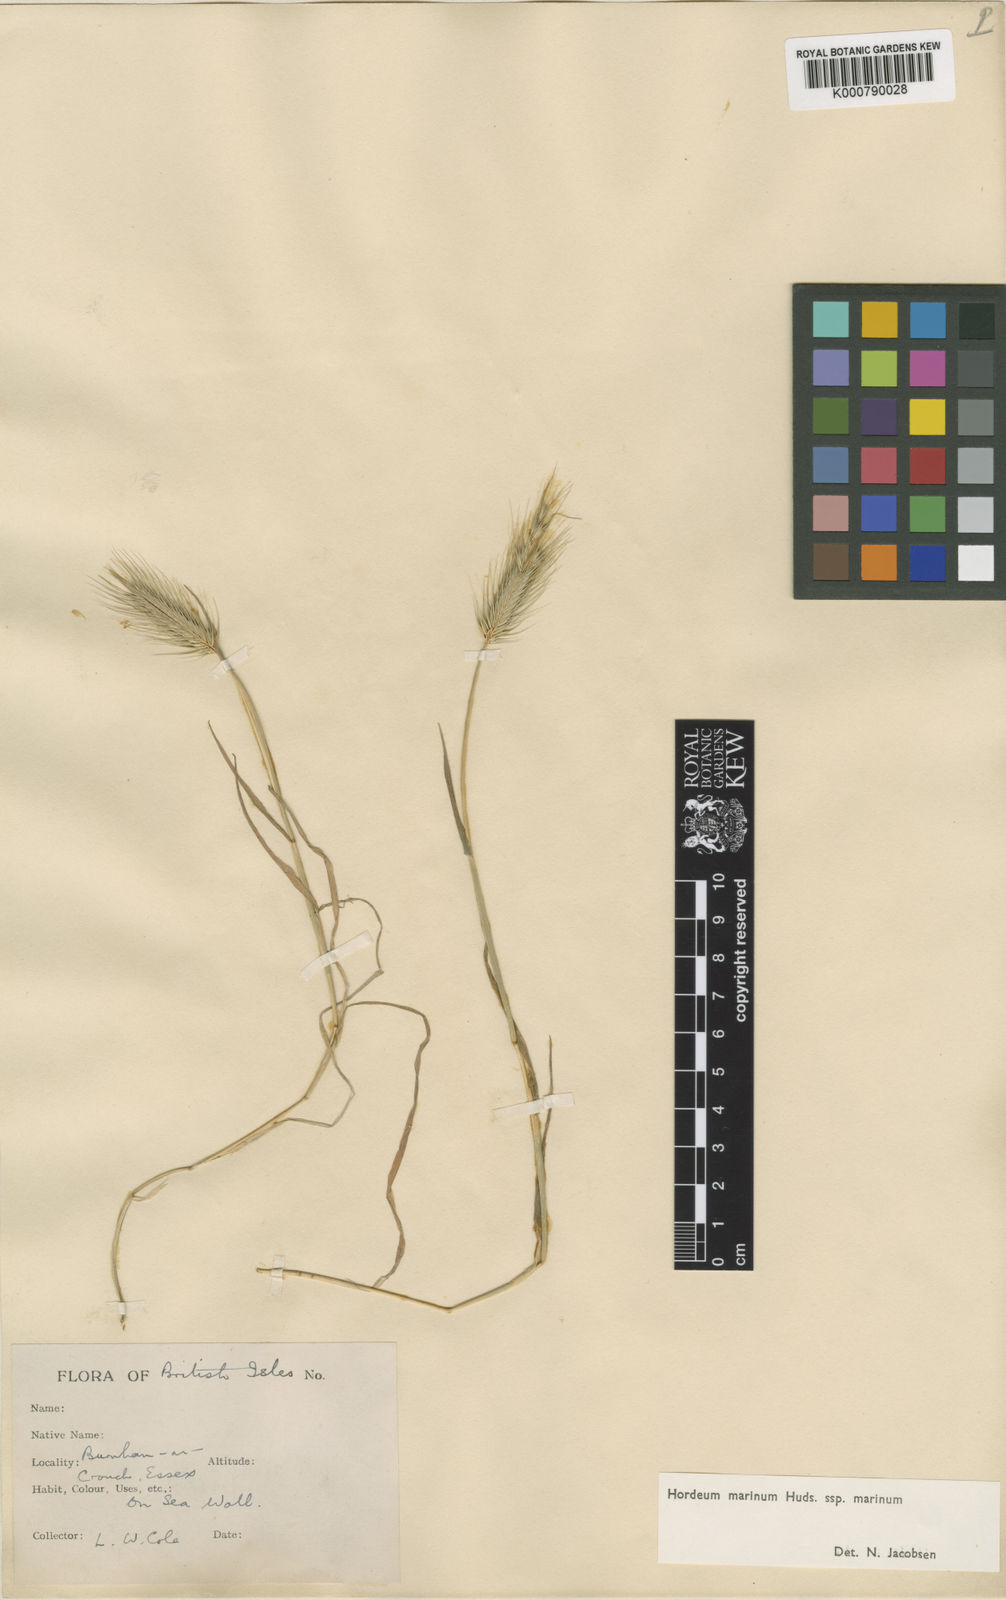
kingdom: Plantae
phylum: Tracheophyta
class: Liliopsida
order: Poales
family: Poaceae
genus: Hordeum
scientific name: Hordeum marinum
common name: Sea barley
